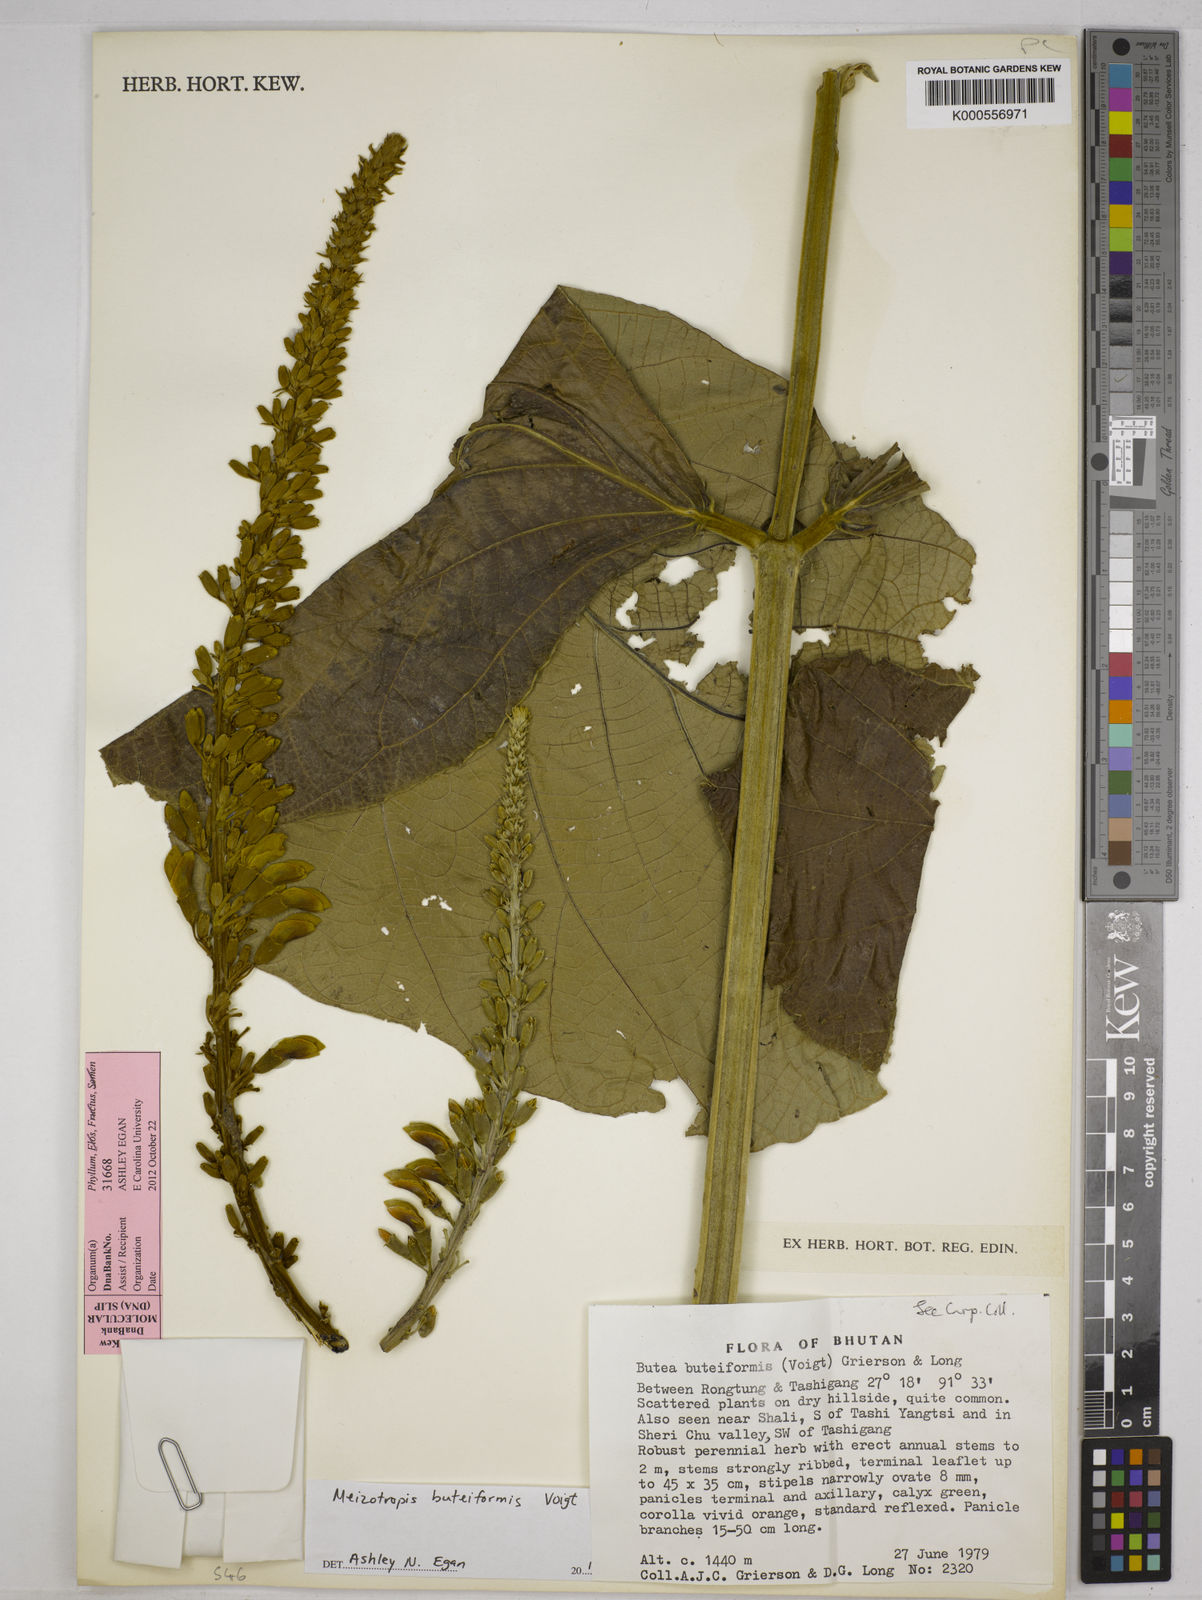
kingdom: Plantae
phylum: Tracheophyta
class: Magnoliopsida
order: Fabales
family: Fabaceae
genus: Butea
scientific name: Butea buteiformis
